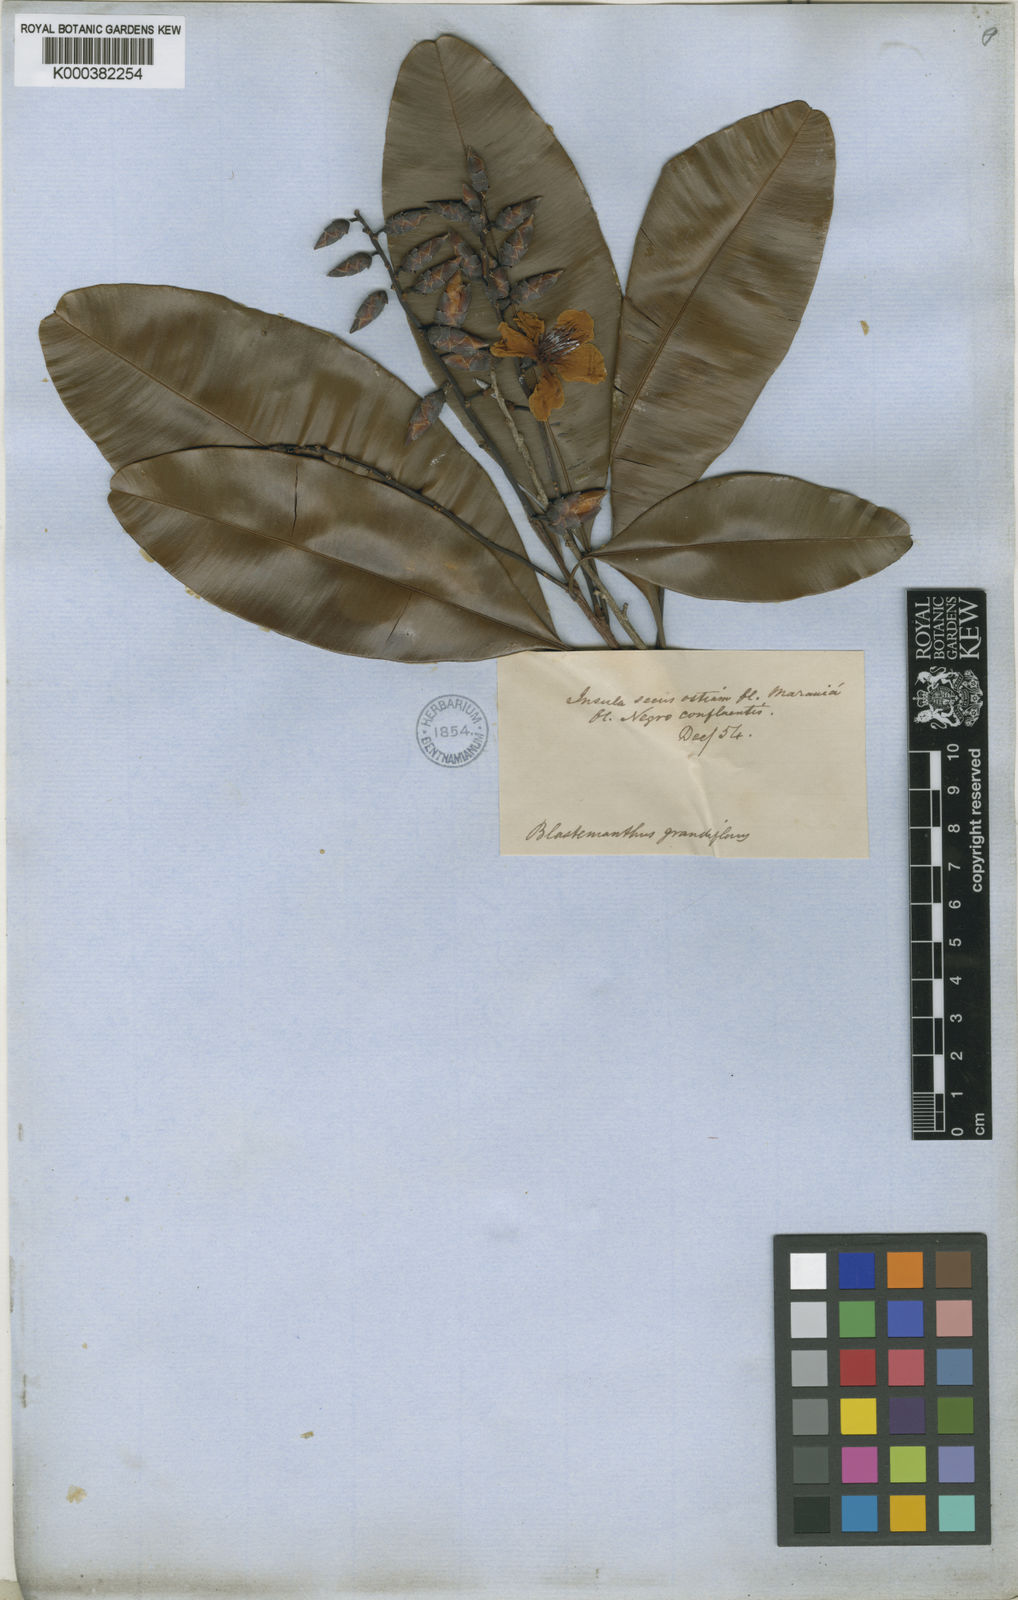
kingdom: Plantae
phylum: Tracheophyta
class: Magnoliopsida
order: Malpighiales
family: Ochnaceae
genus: Blastemanthus
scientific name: Blastemanthus
